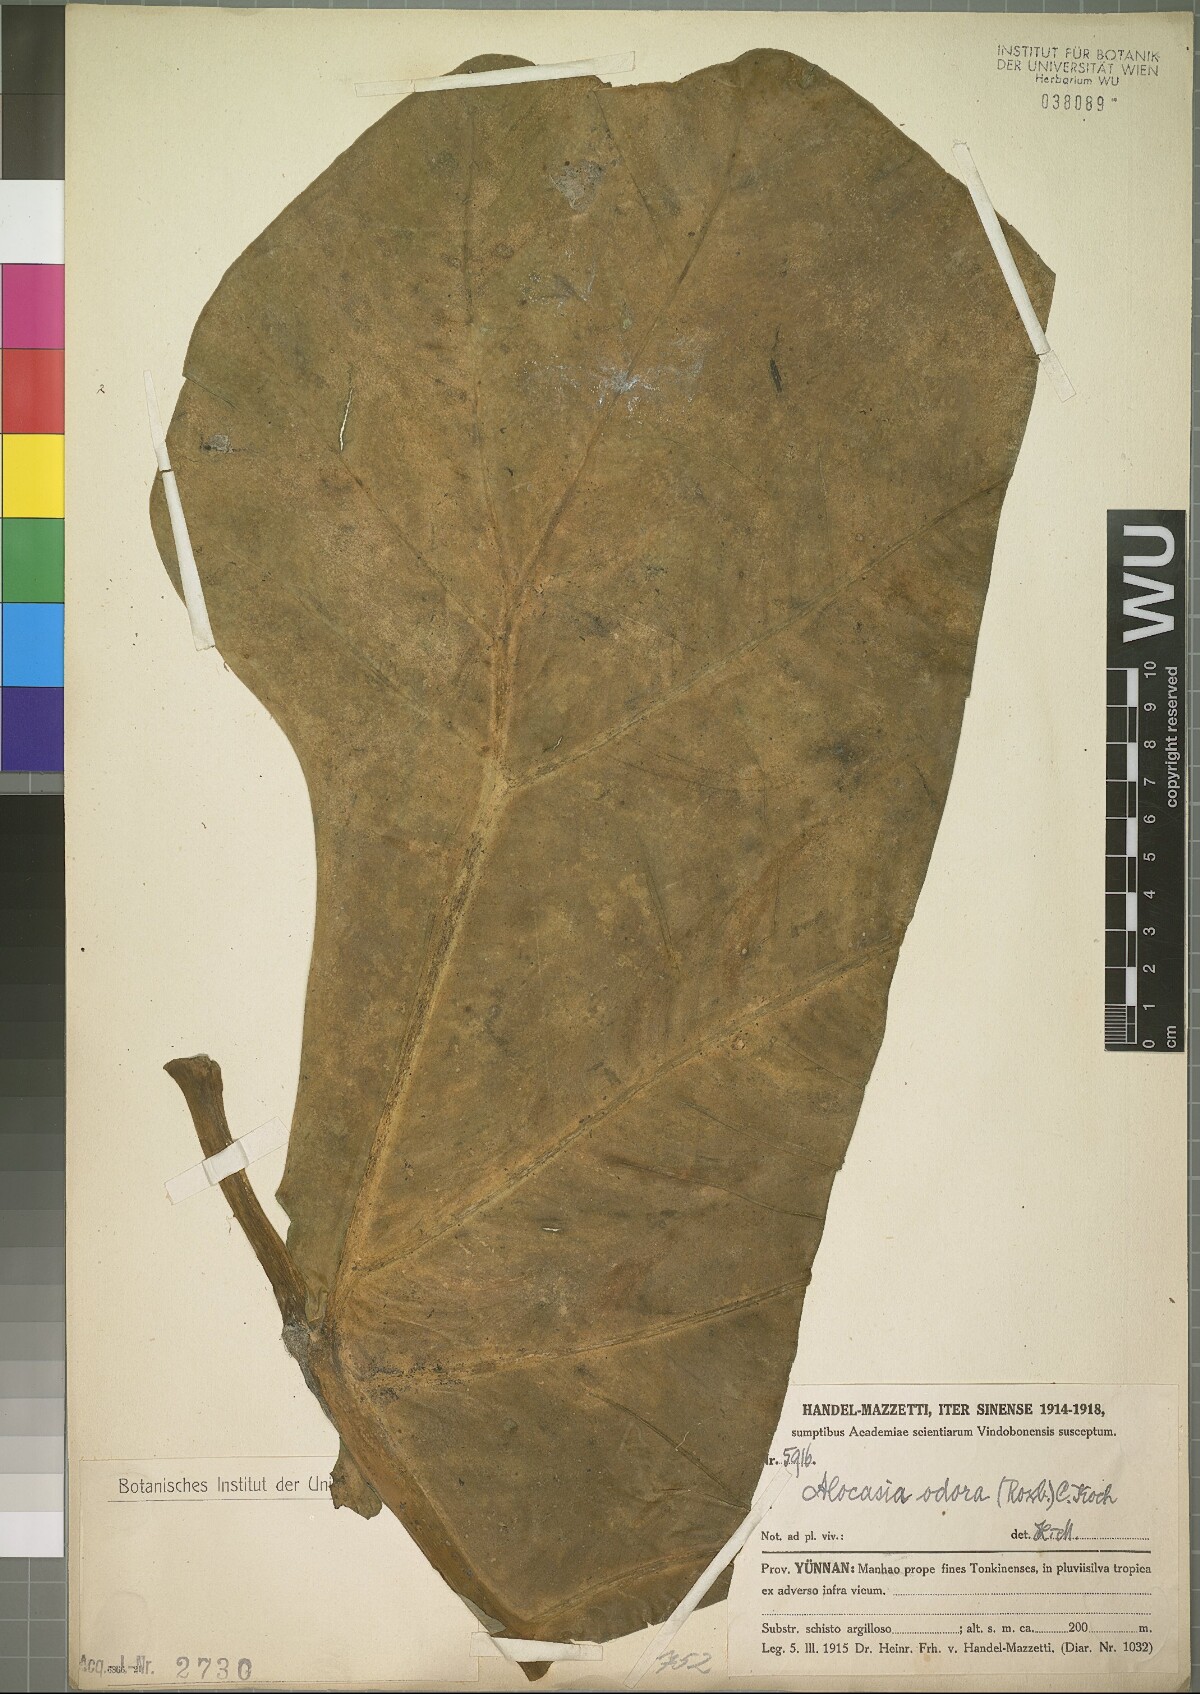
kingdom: Plantae
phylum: Tracheophyta
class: Liliopsida
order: Alismatales
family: Araceae
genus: Alocasia
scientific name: Alocasia odora
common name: Asian taro
